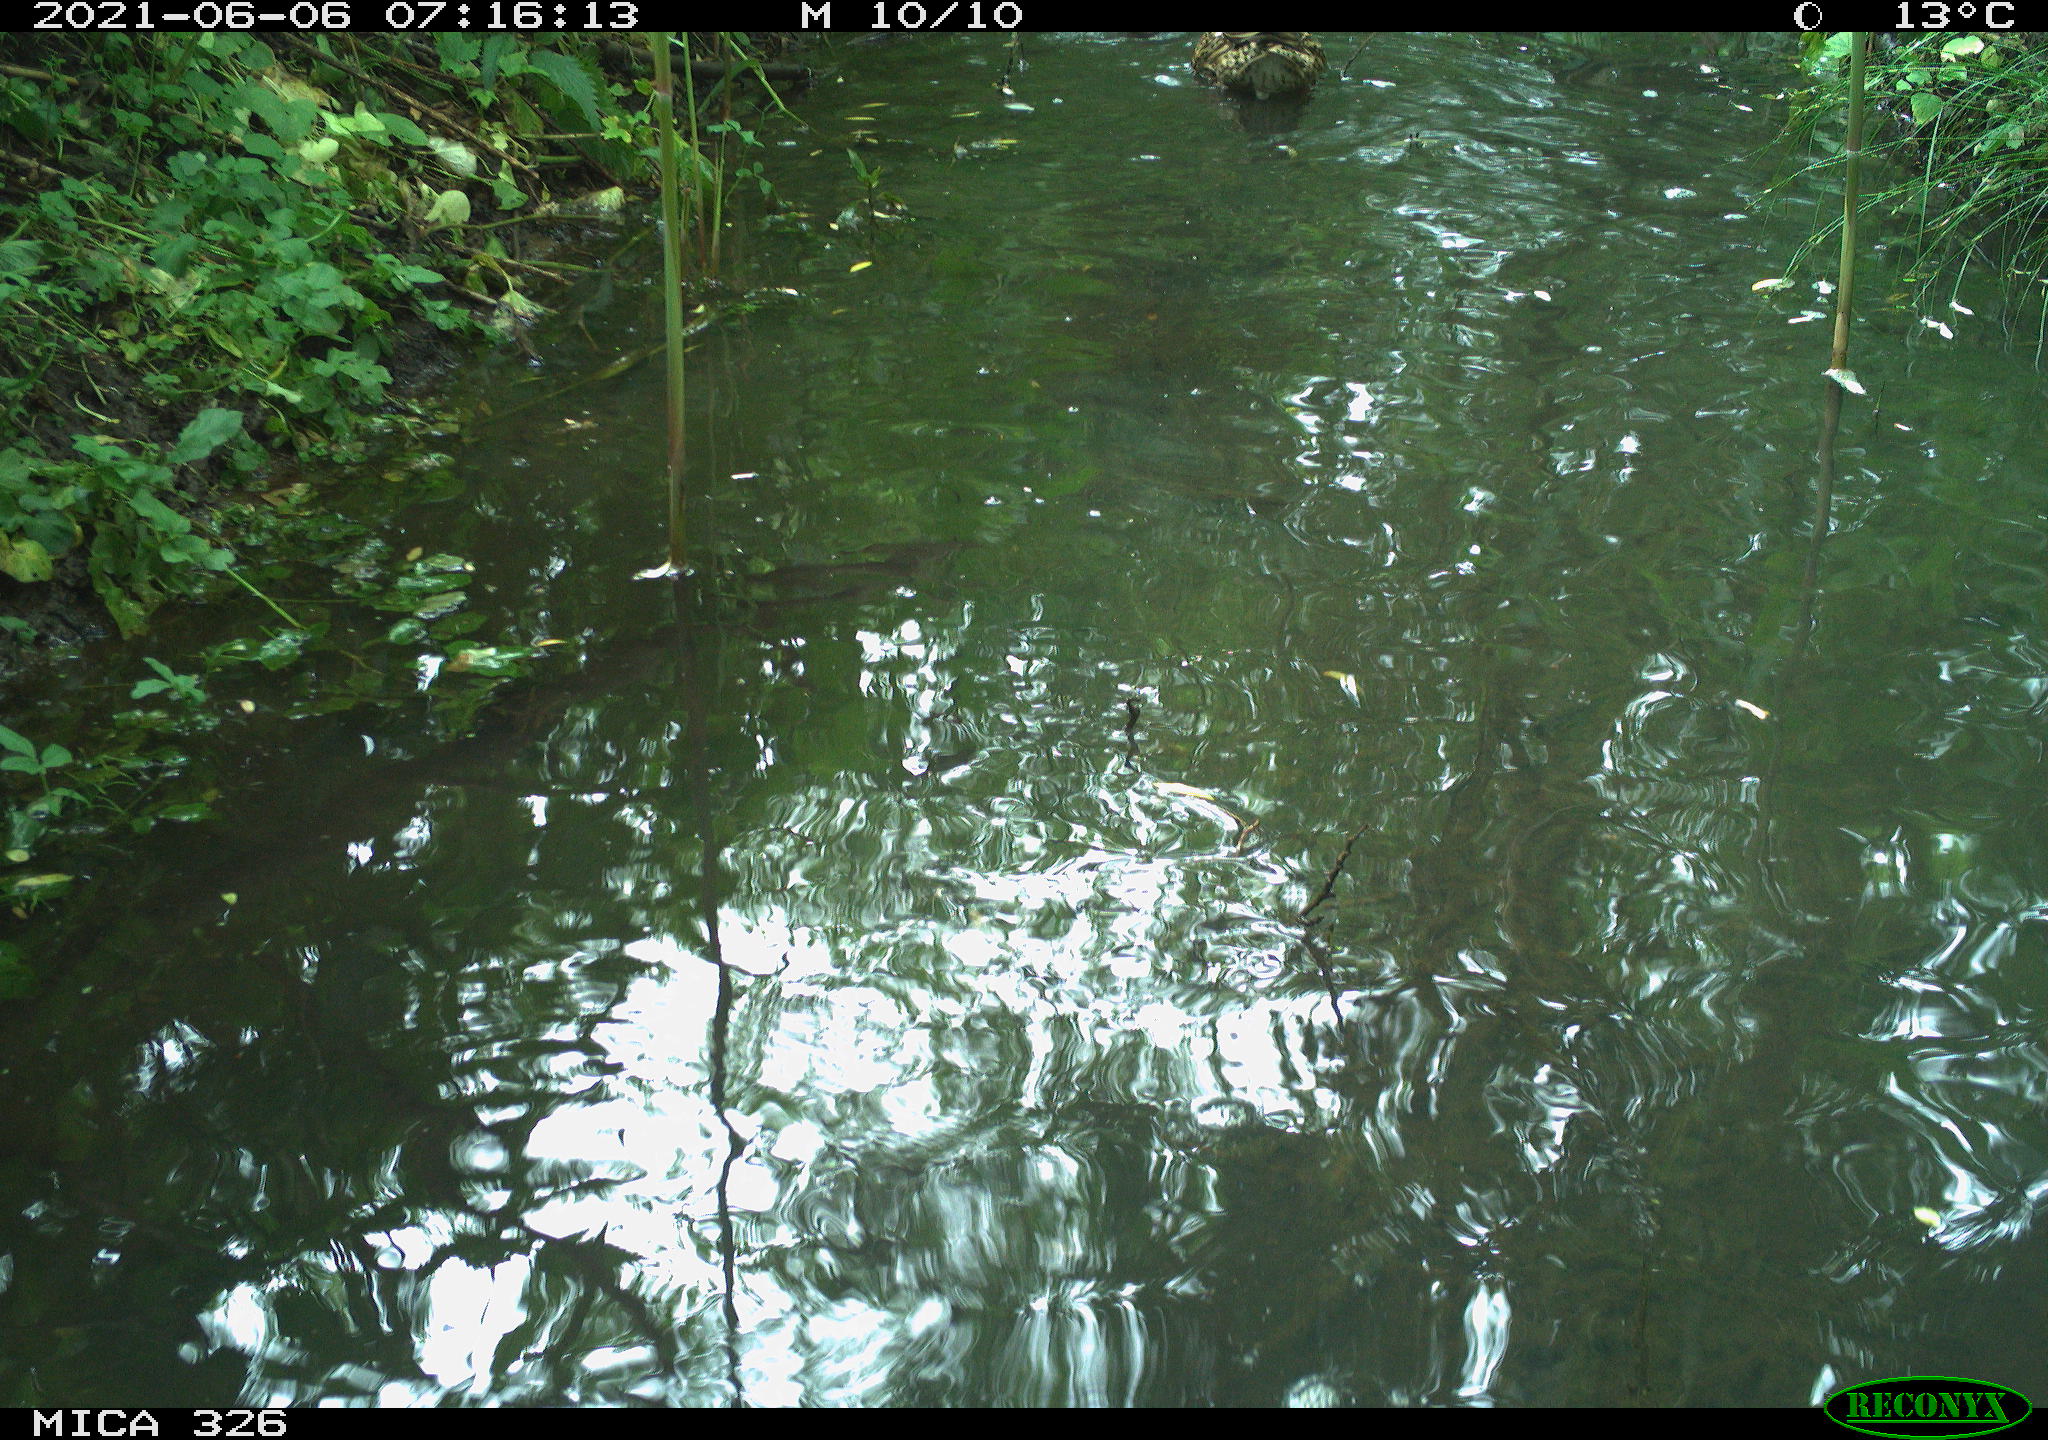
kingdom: Animalia
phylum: Chordata
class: Aves
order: Anseriformes
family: Anatidae
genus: Anas
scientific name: Anas platyrhynchos
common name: Mallard
